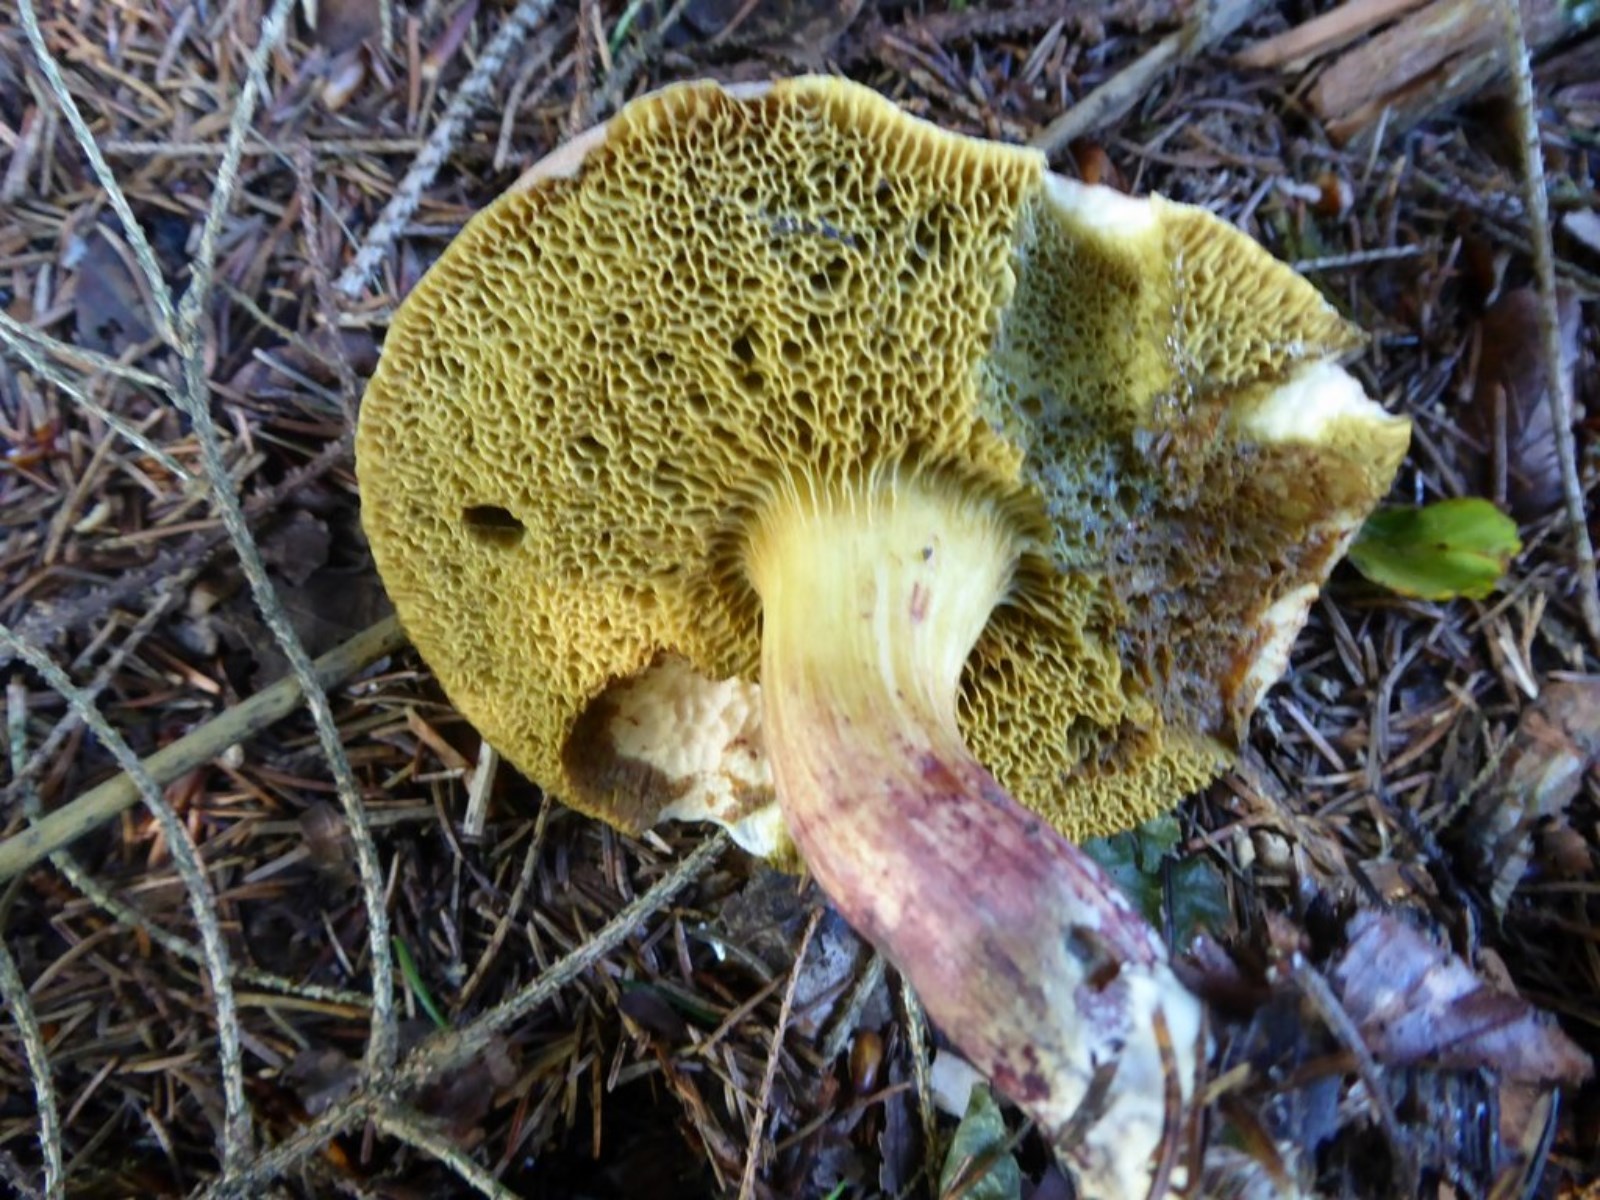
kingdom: Fungi
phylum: Basidiomycota
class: Agaricomycetes
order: Boletales
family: Boletaceae
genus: Xerocomellus
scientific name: Xerocomellus
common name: dværgrørhat
